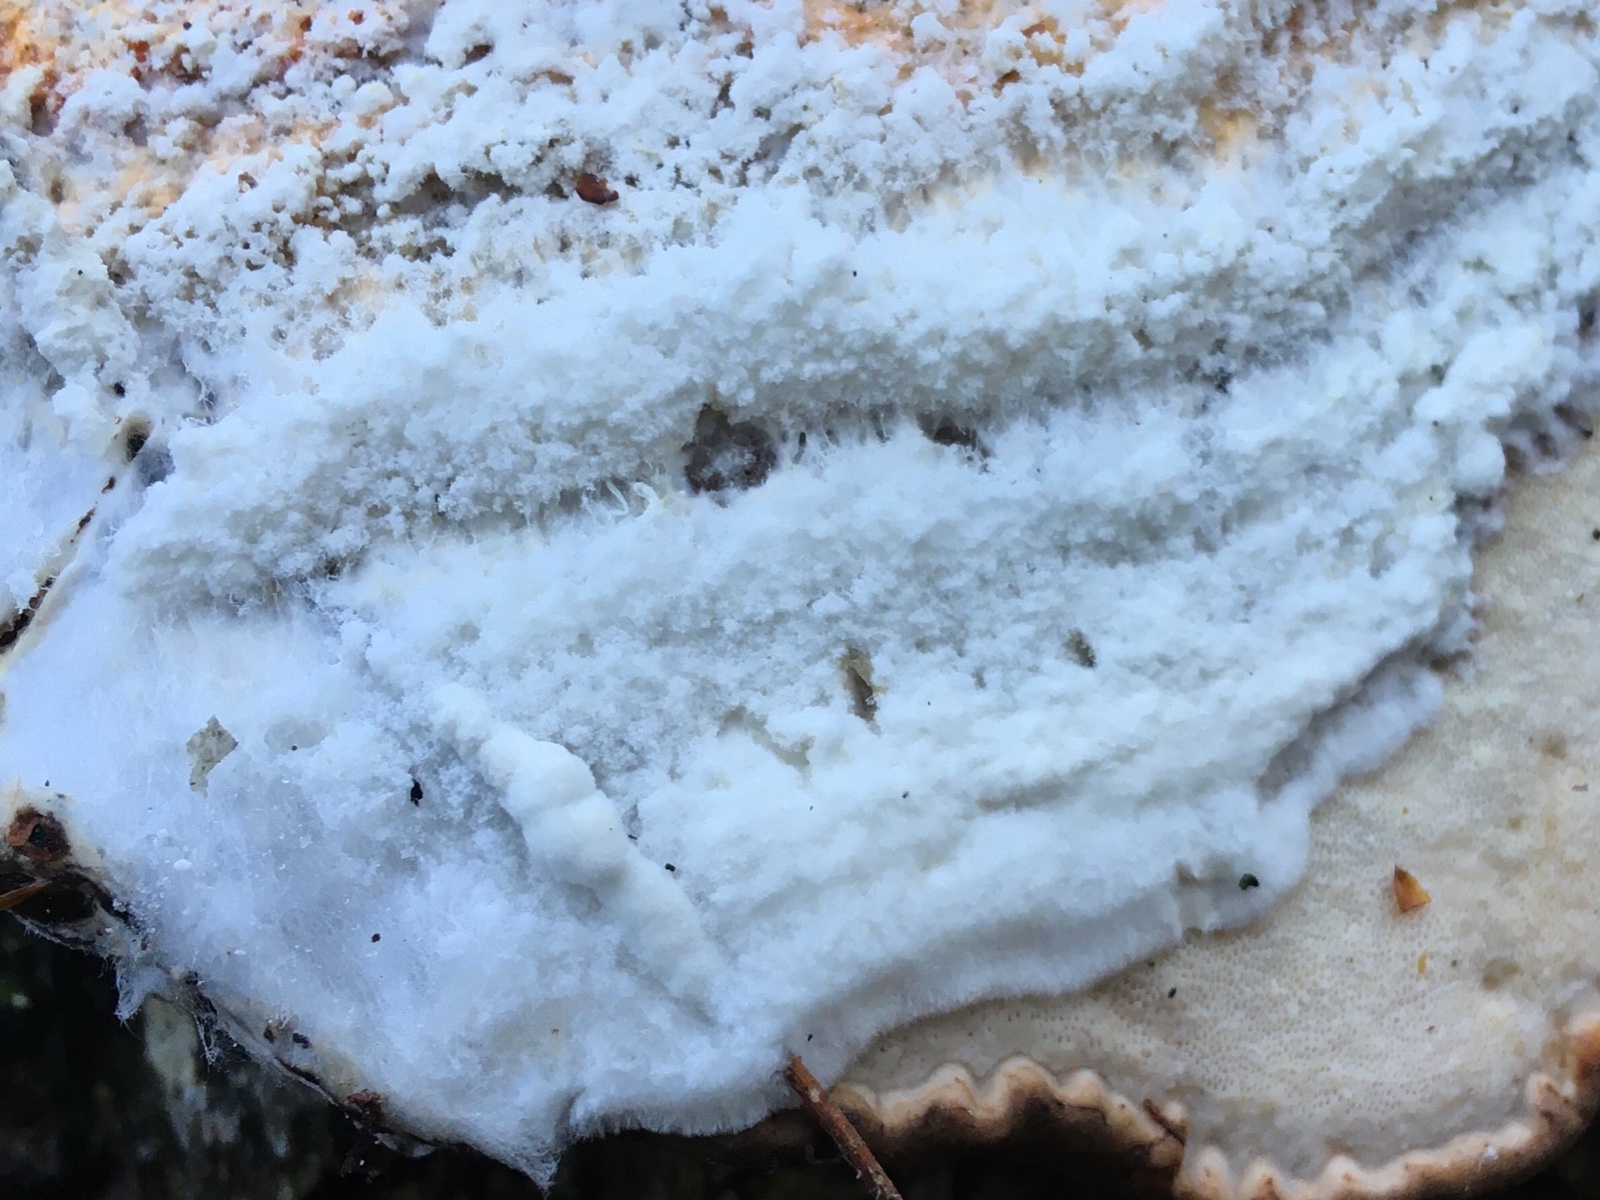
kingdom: Fungi
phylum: Ascomycota
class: Sordariomycetes
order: Hypocreales
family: Hypocreaceae
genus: Hypomyces
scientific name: Hypomyces aurantius
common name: almindelig snylteskorpe
